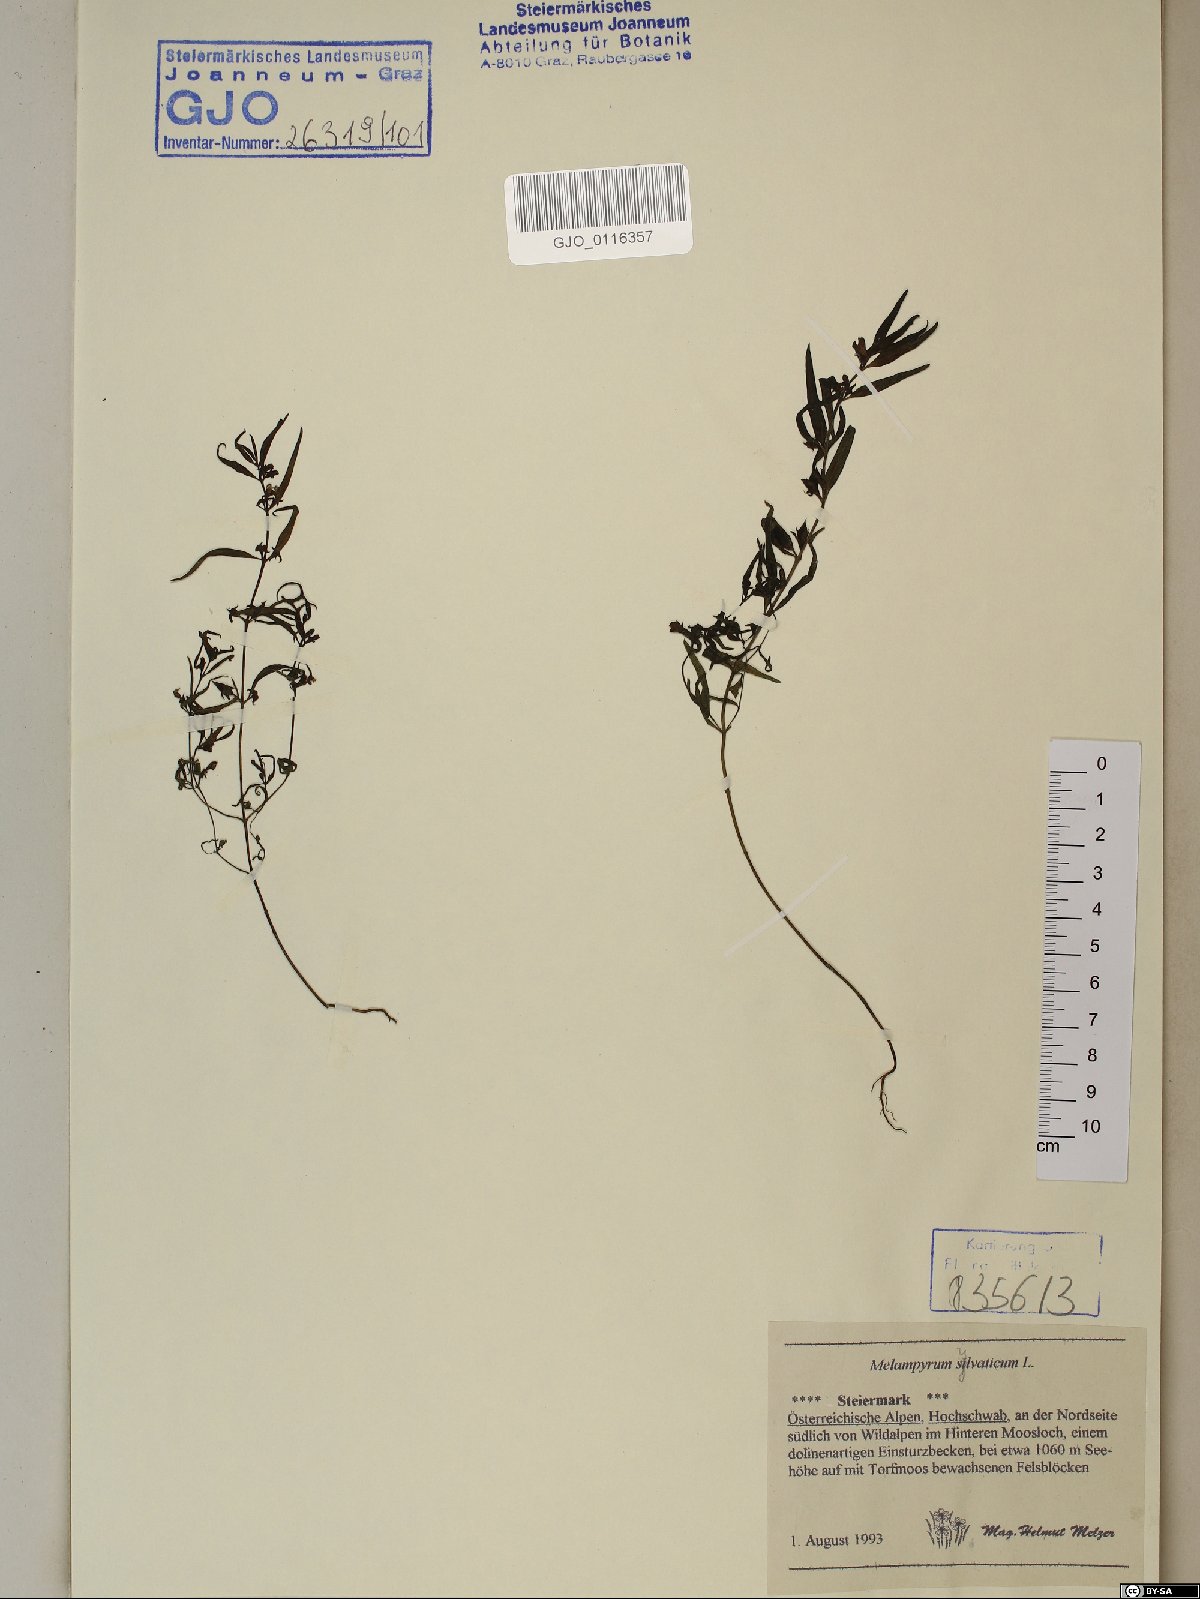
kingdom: Plantae
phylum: Tracheophyta
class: Magnoliopsida
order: Lamiales
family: Orobanchaceae
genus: Melampyrum
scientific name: Melampyrum sylvaticum
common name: Small cow-wheat
